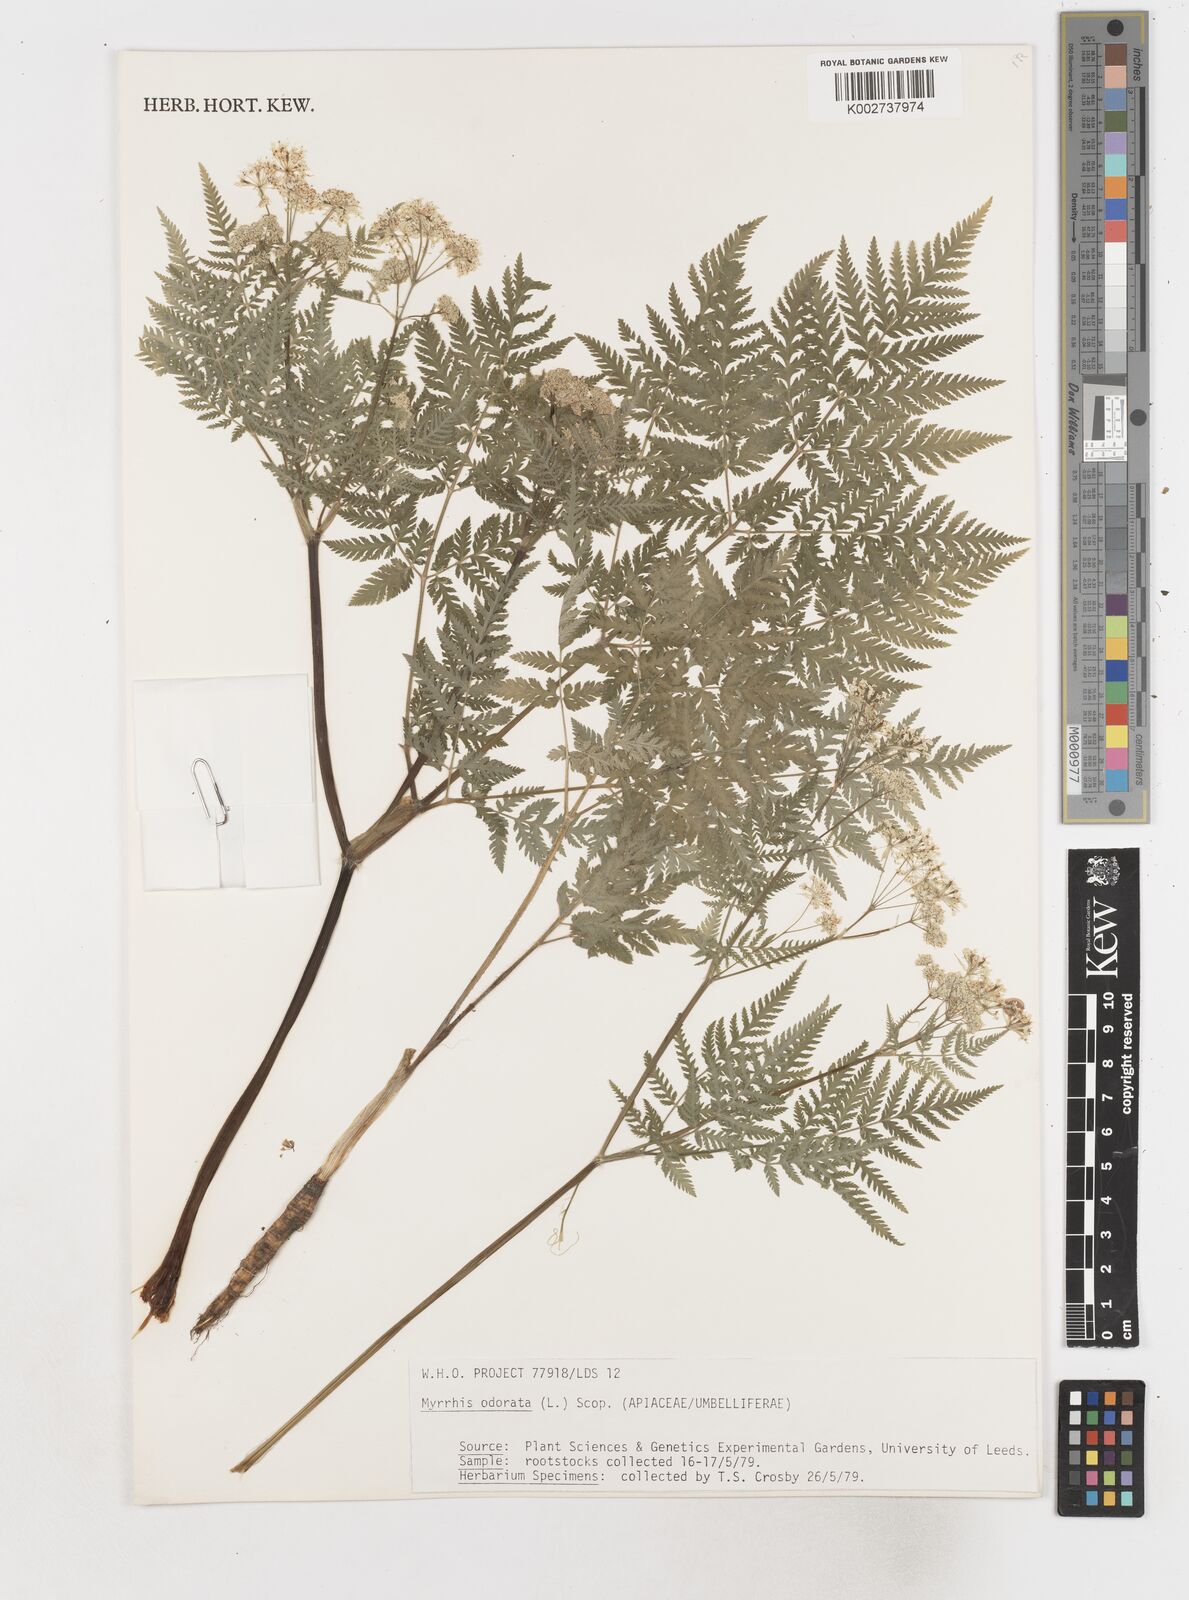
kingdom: Plantae
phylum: Tracheophyta
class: Magnoliopsida
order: Apiales
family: Apiaceae
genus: Myrrhis
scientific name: Myrrhis odorata
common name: Sweet cicely
